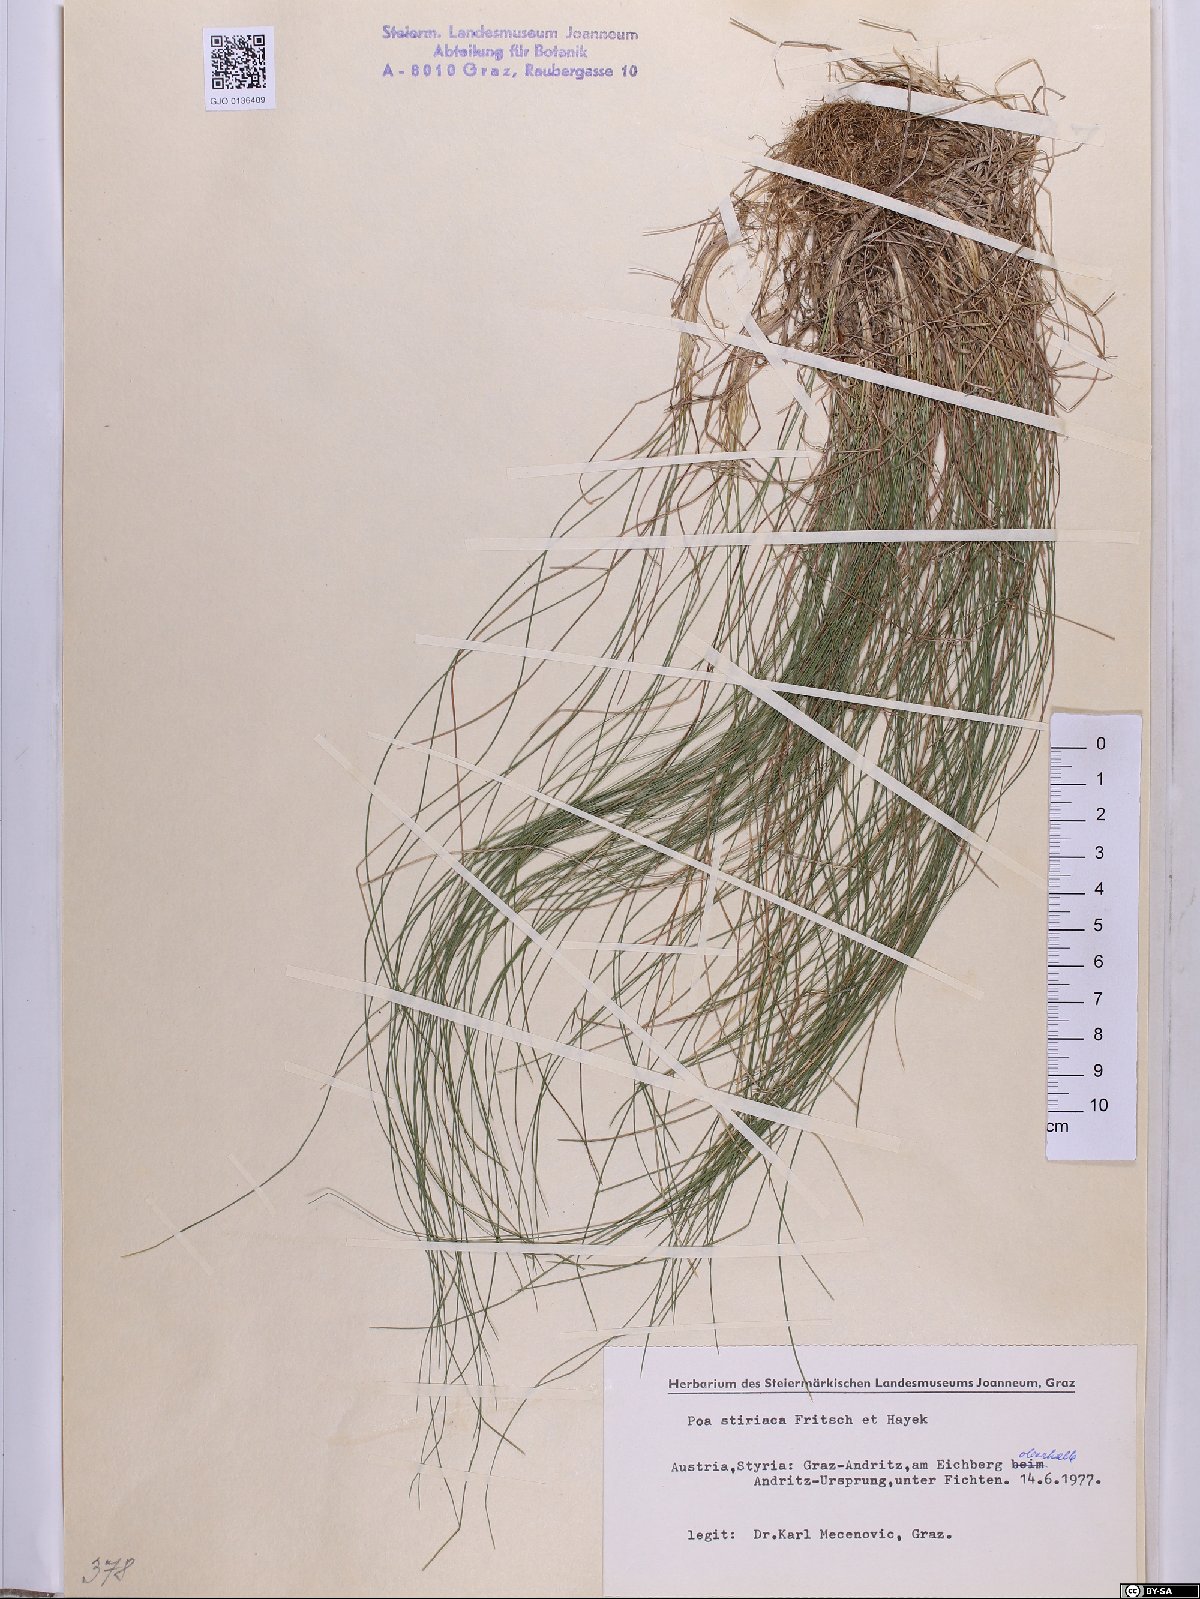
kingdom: Plantae
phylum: Tracheophyta
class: Liliopsida
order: Poales
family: Poaceae
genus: Poa
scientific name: Poa stiriaca
